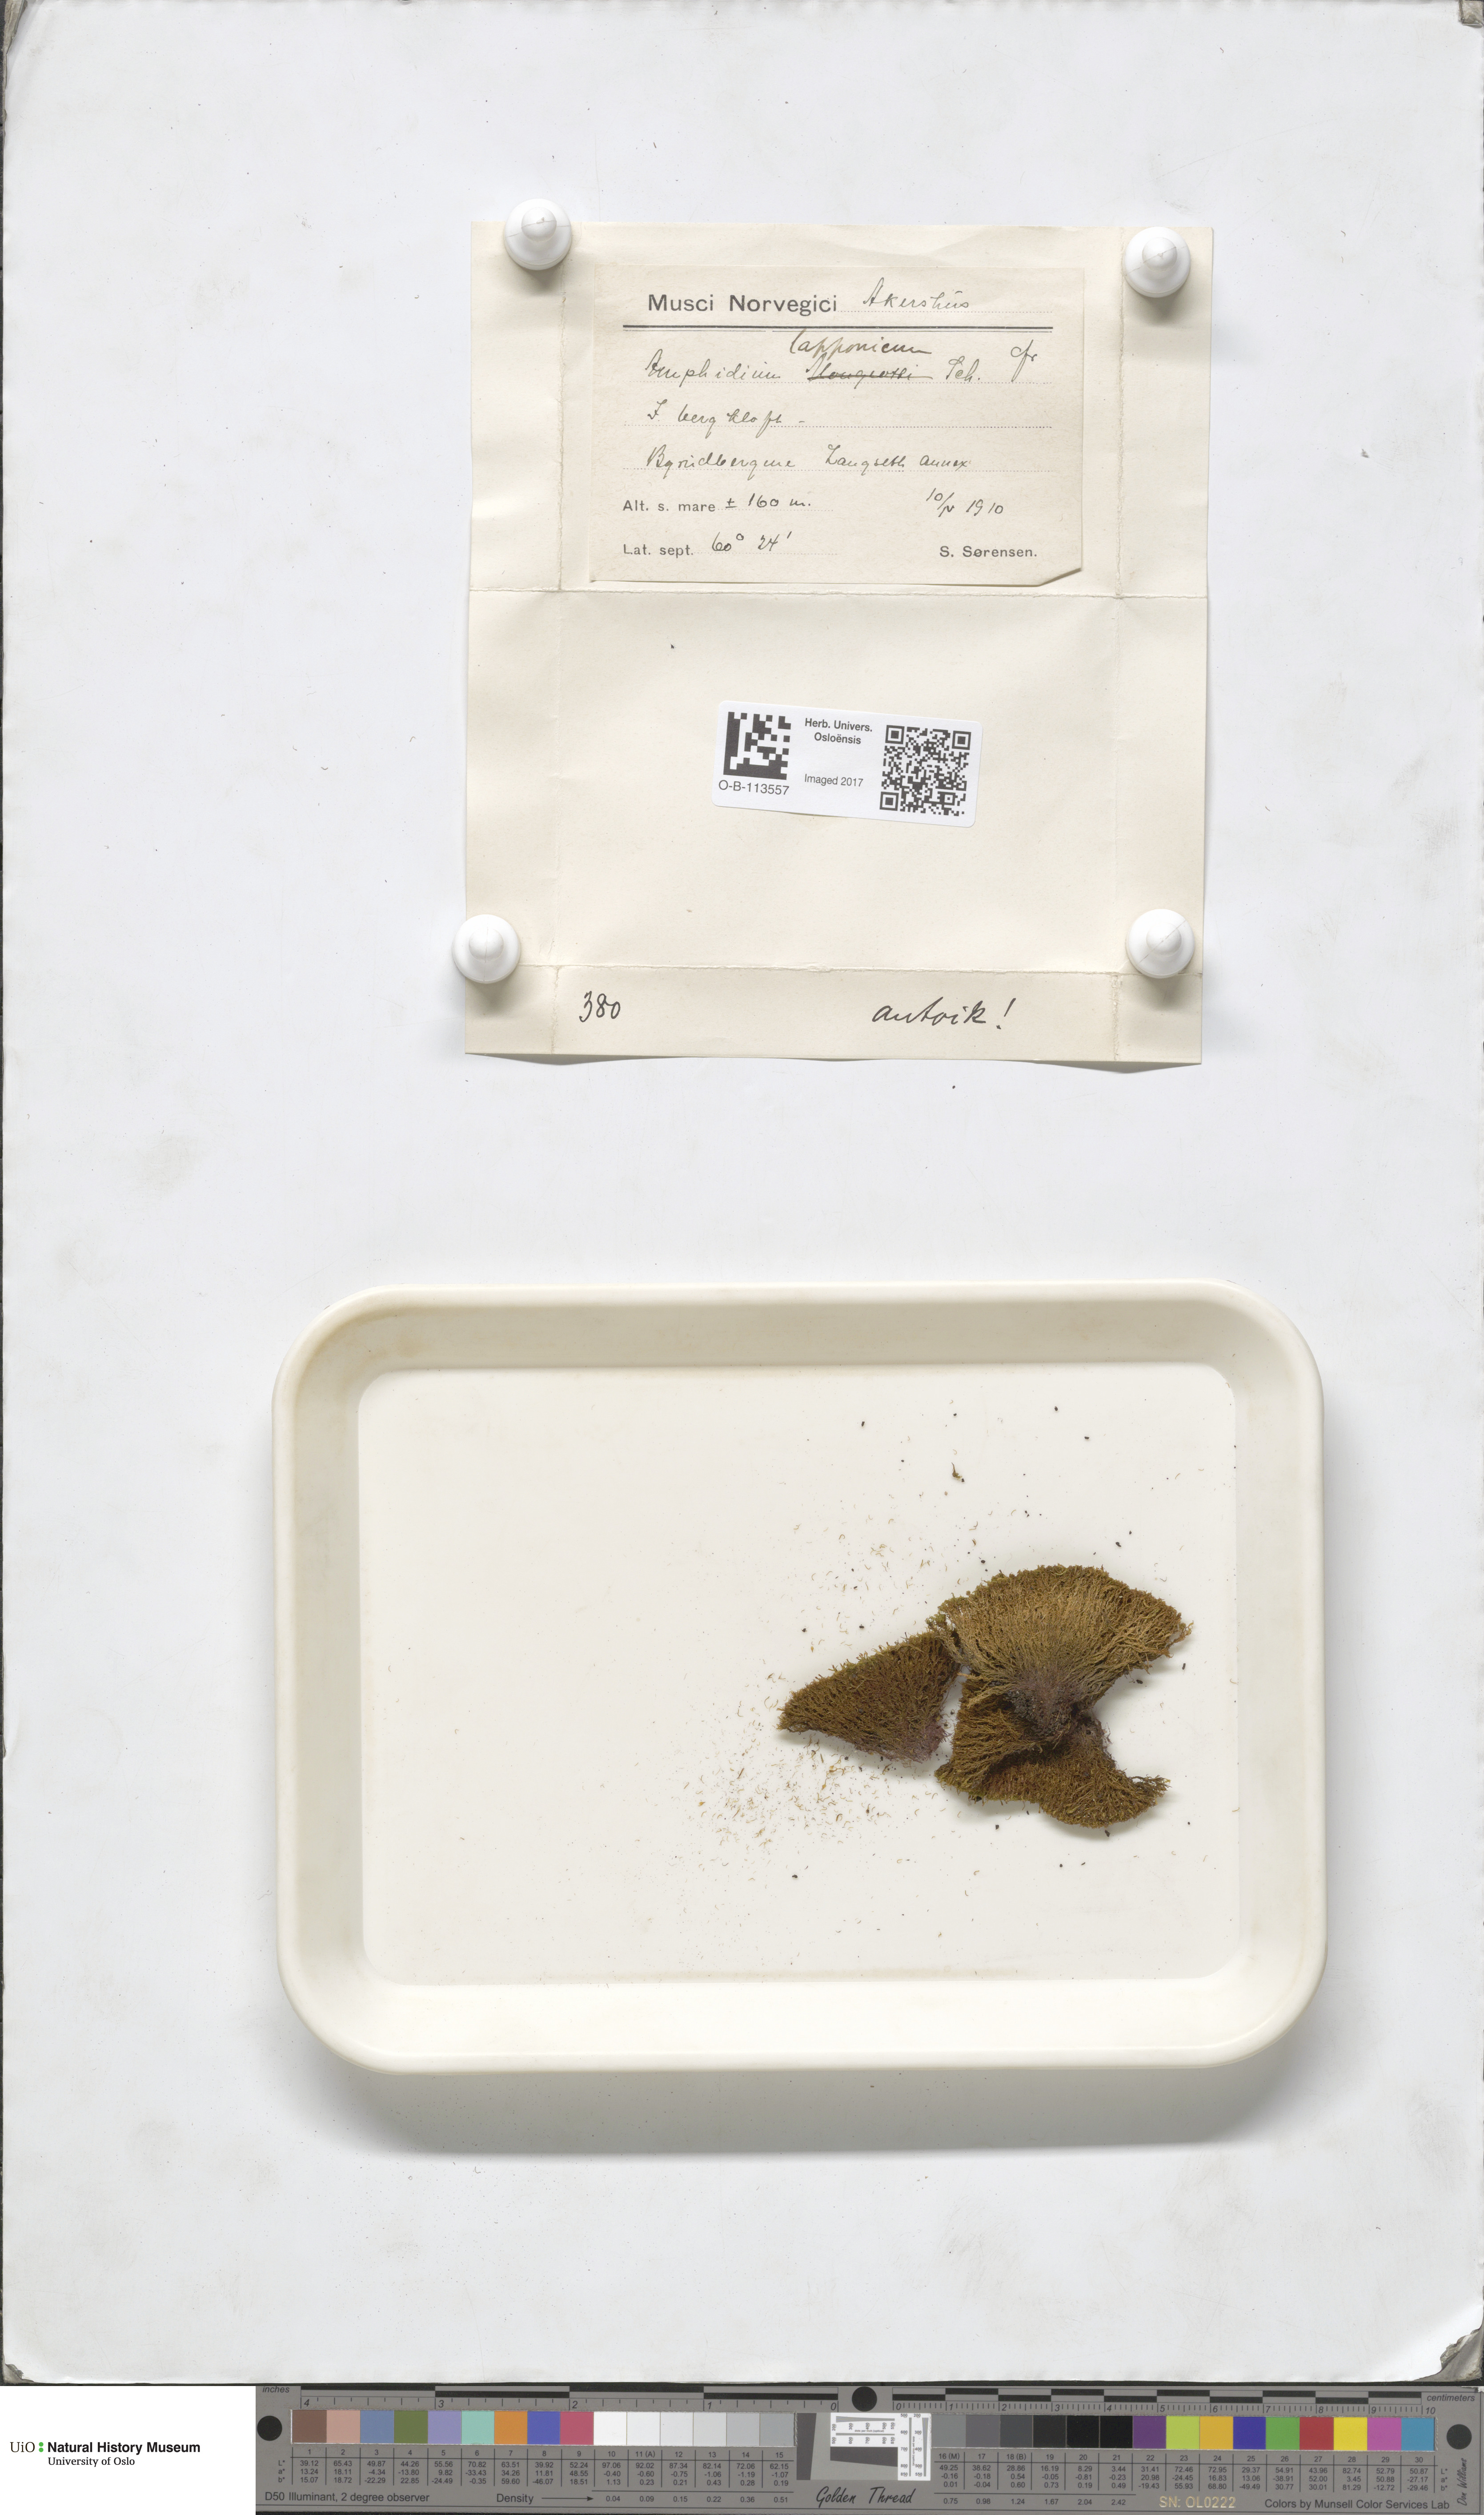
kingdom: Plantae
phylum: Bryophyta
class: Bryopsida
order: Dicranales
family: Amphidiaceae
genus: Amphidium
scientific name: Amphidium lapponicum
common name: Lapland yoke moss
